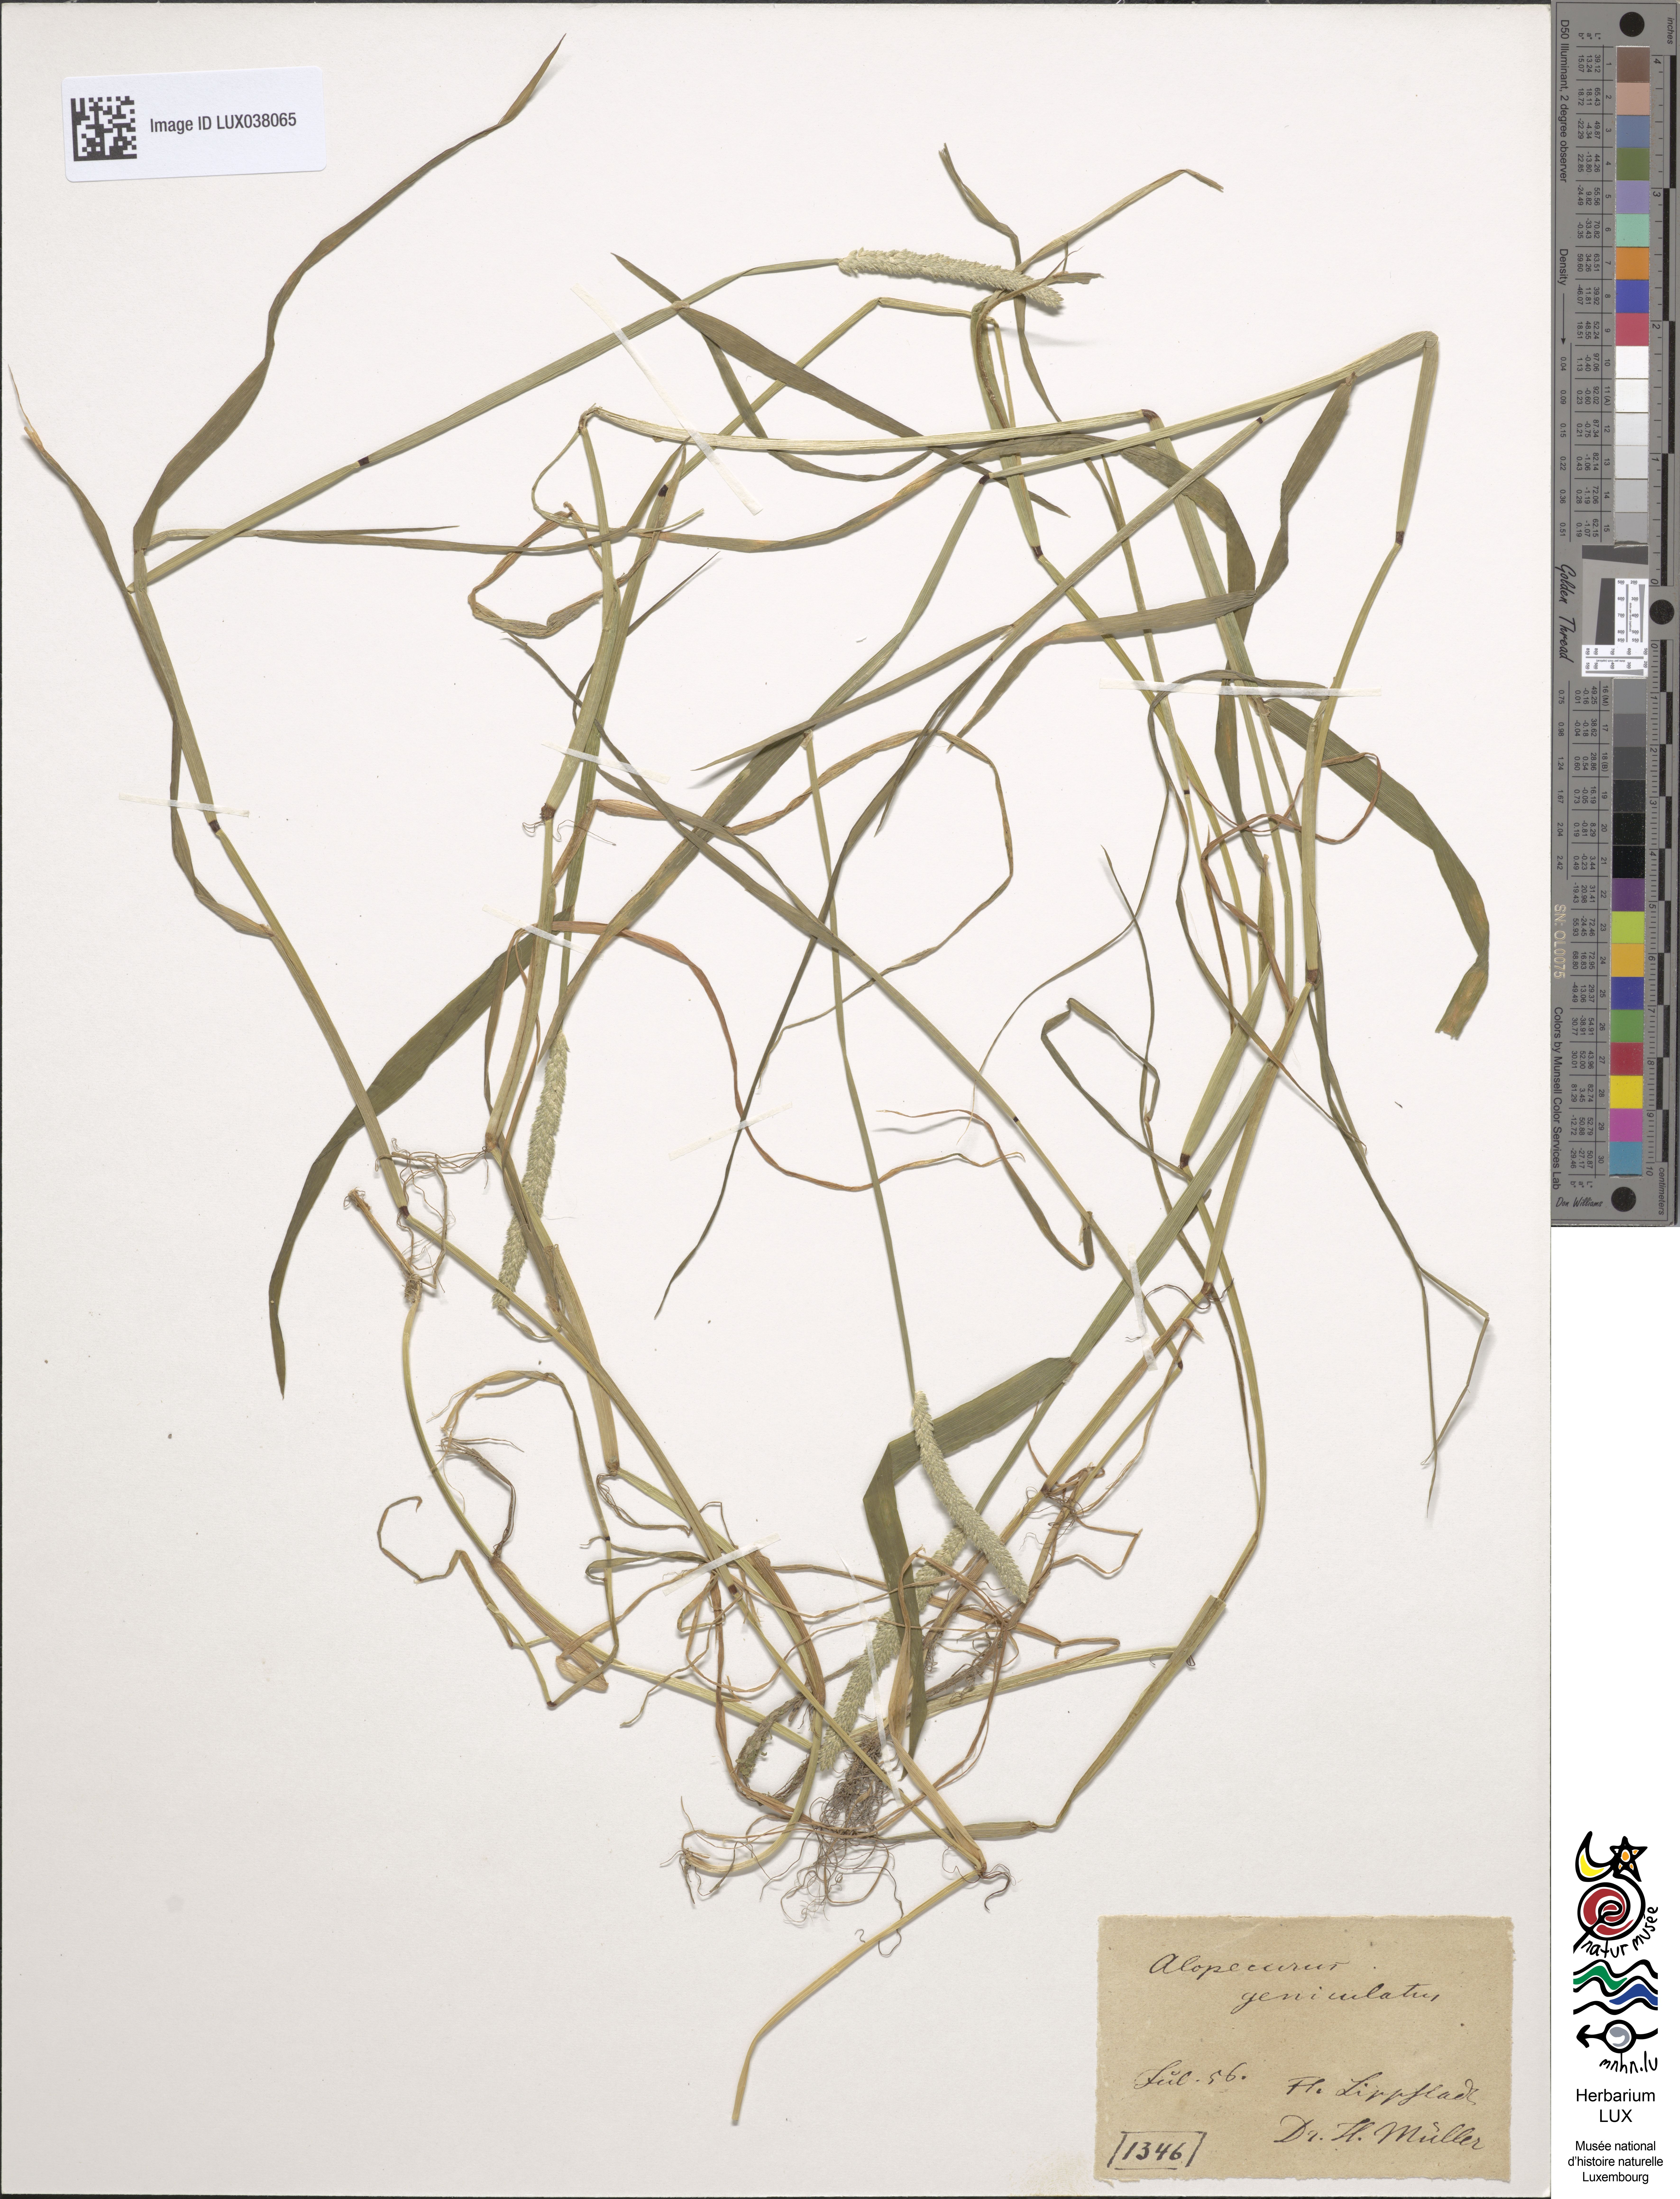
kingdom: Plantae
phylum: Tracheophyta
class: Liliopsida
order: Poales
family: Poaceae
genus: Alopecurus
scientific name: Alopecurus geniculatus
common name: Water foxtail
